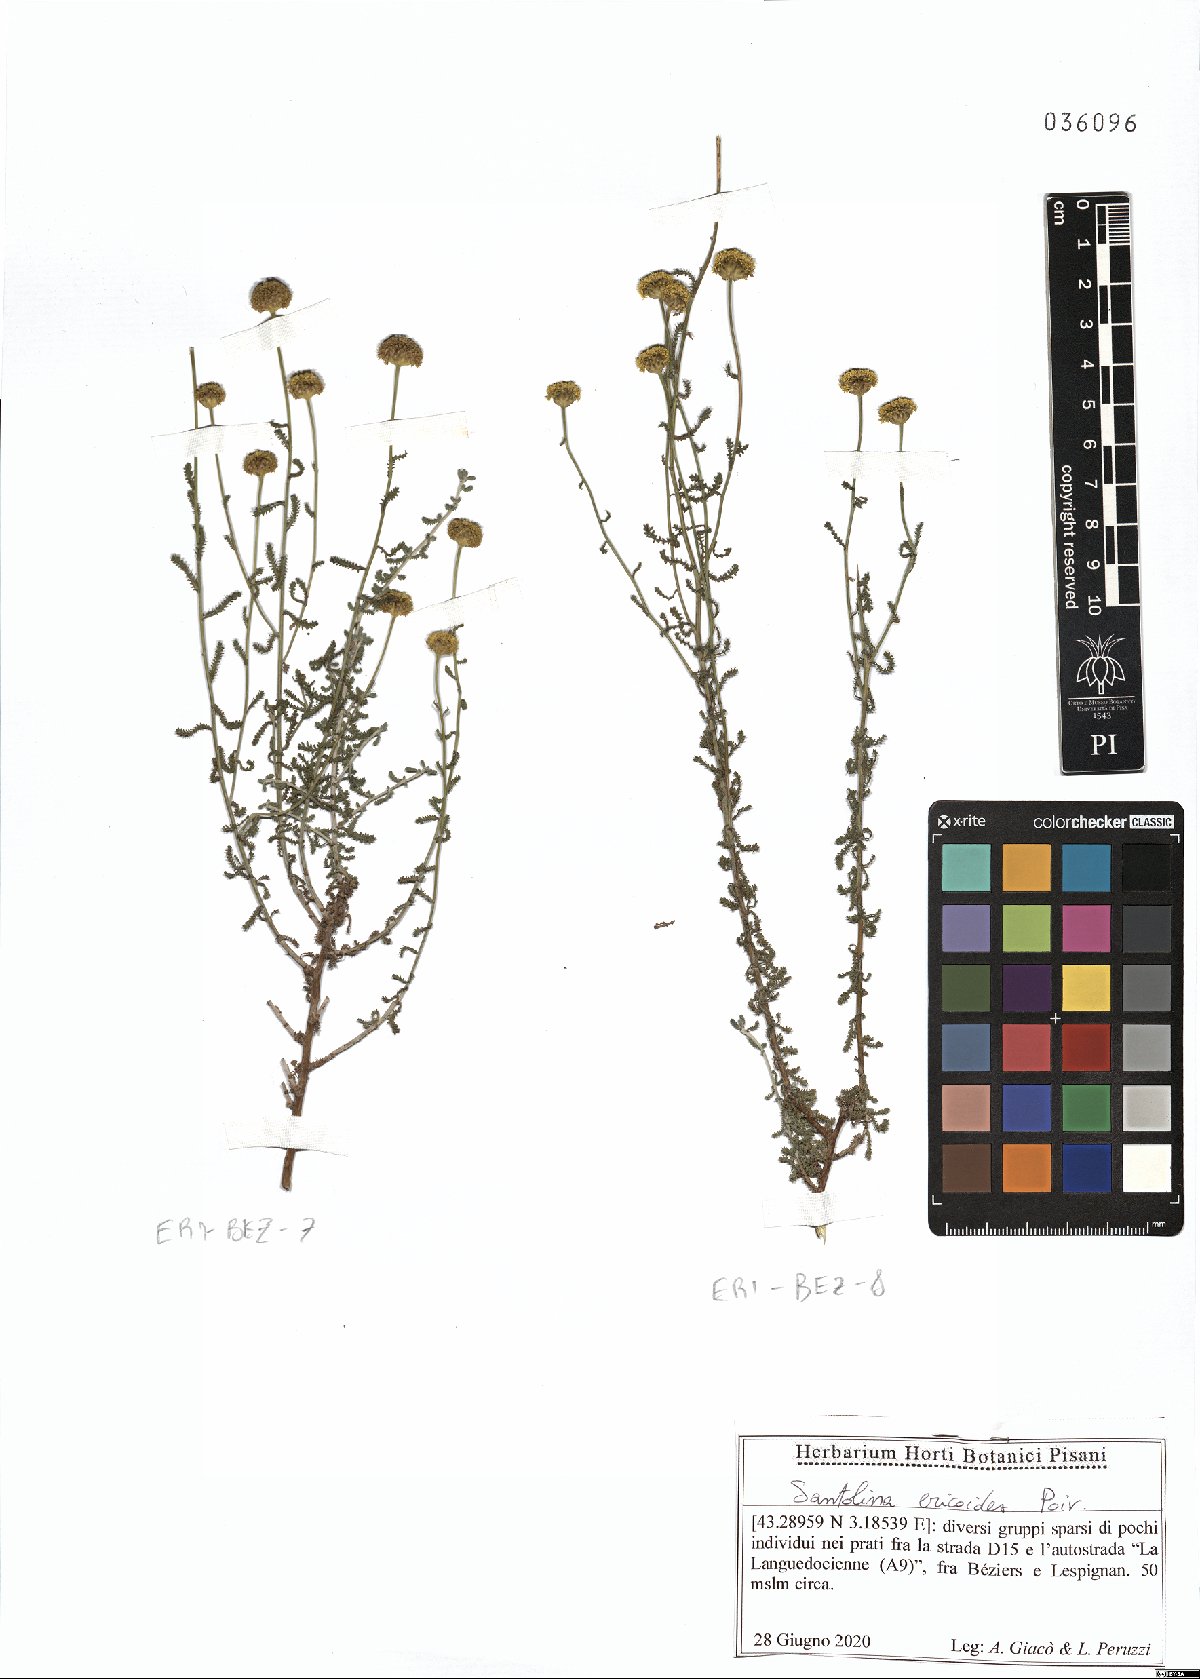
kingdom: Plantae
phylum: Tracheophyta
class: Magnoliopsida
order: Asterales
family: Asteraceae
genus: Santolina
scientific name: Santolina ericoides
